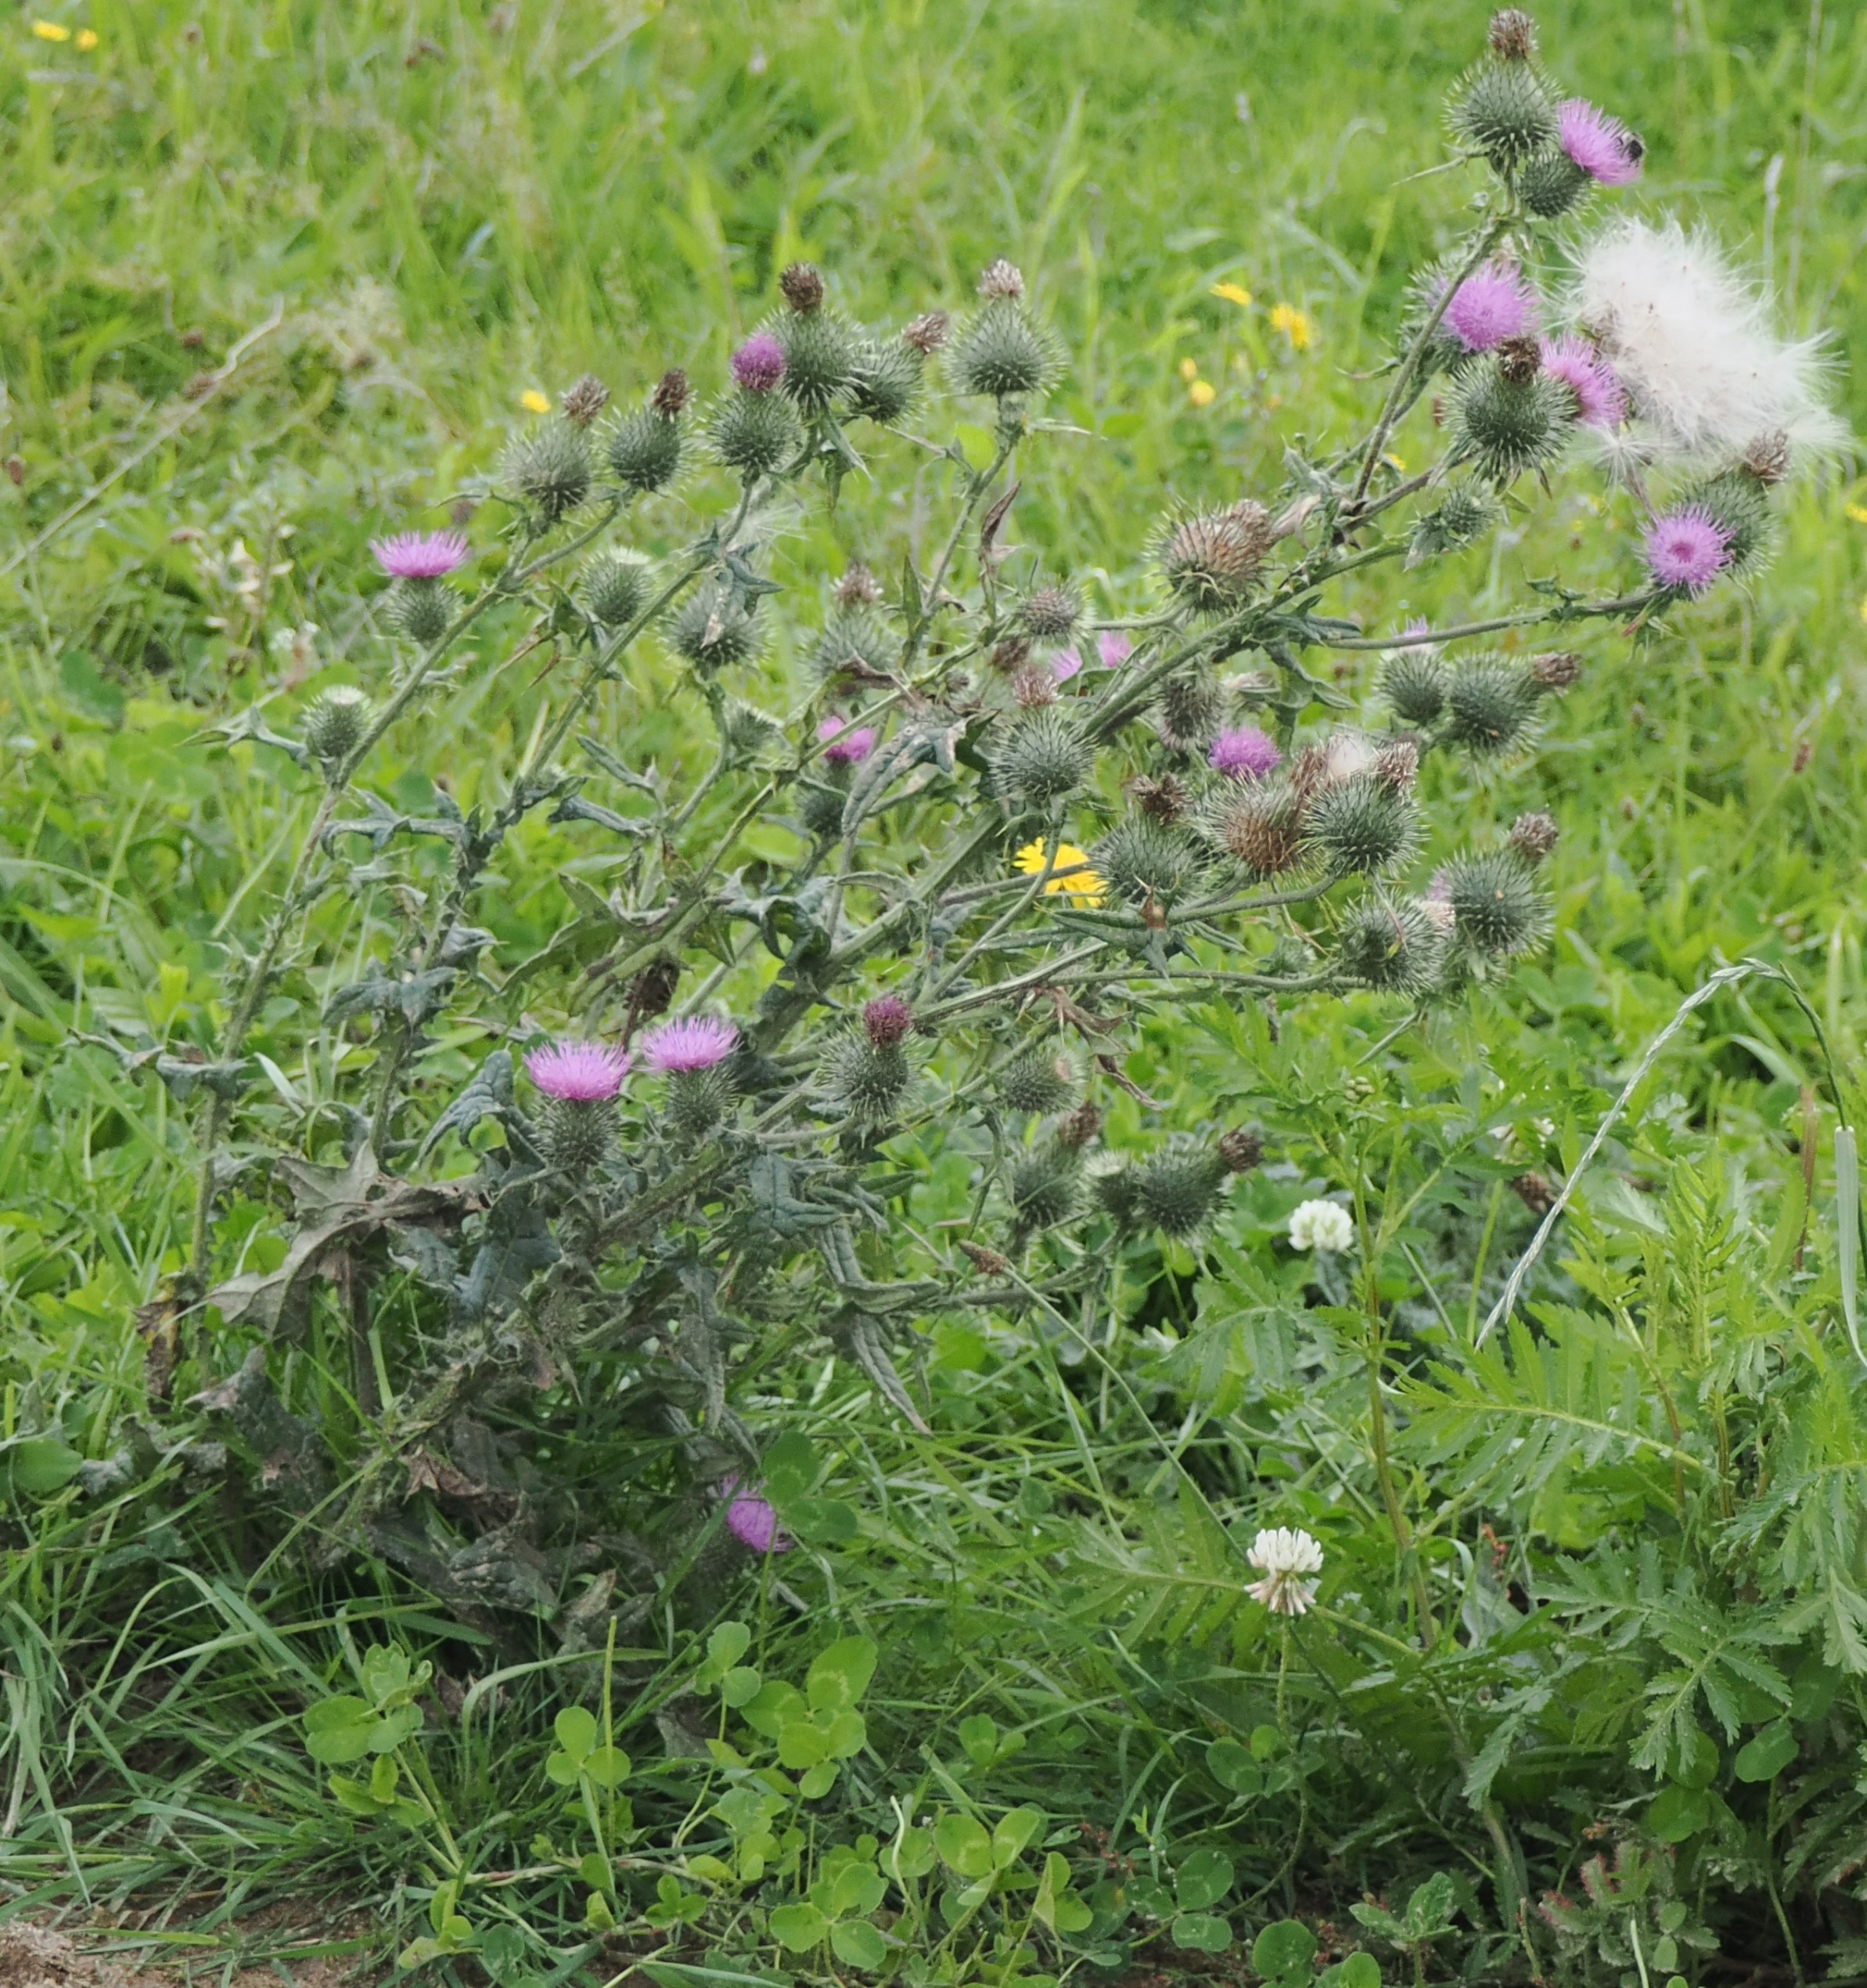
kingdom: Plantae
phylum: Tracheophyta
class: Magnoliopsida
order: Asterales
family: Asteraceae
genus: Cirsium
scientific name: Cirsium vulgare
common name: Horse-tidsel
